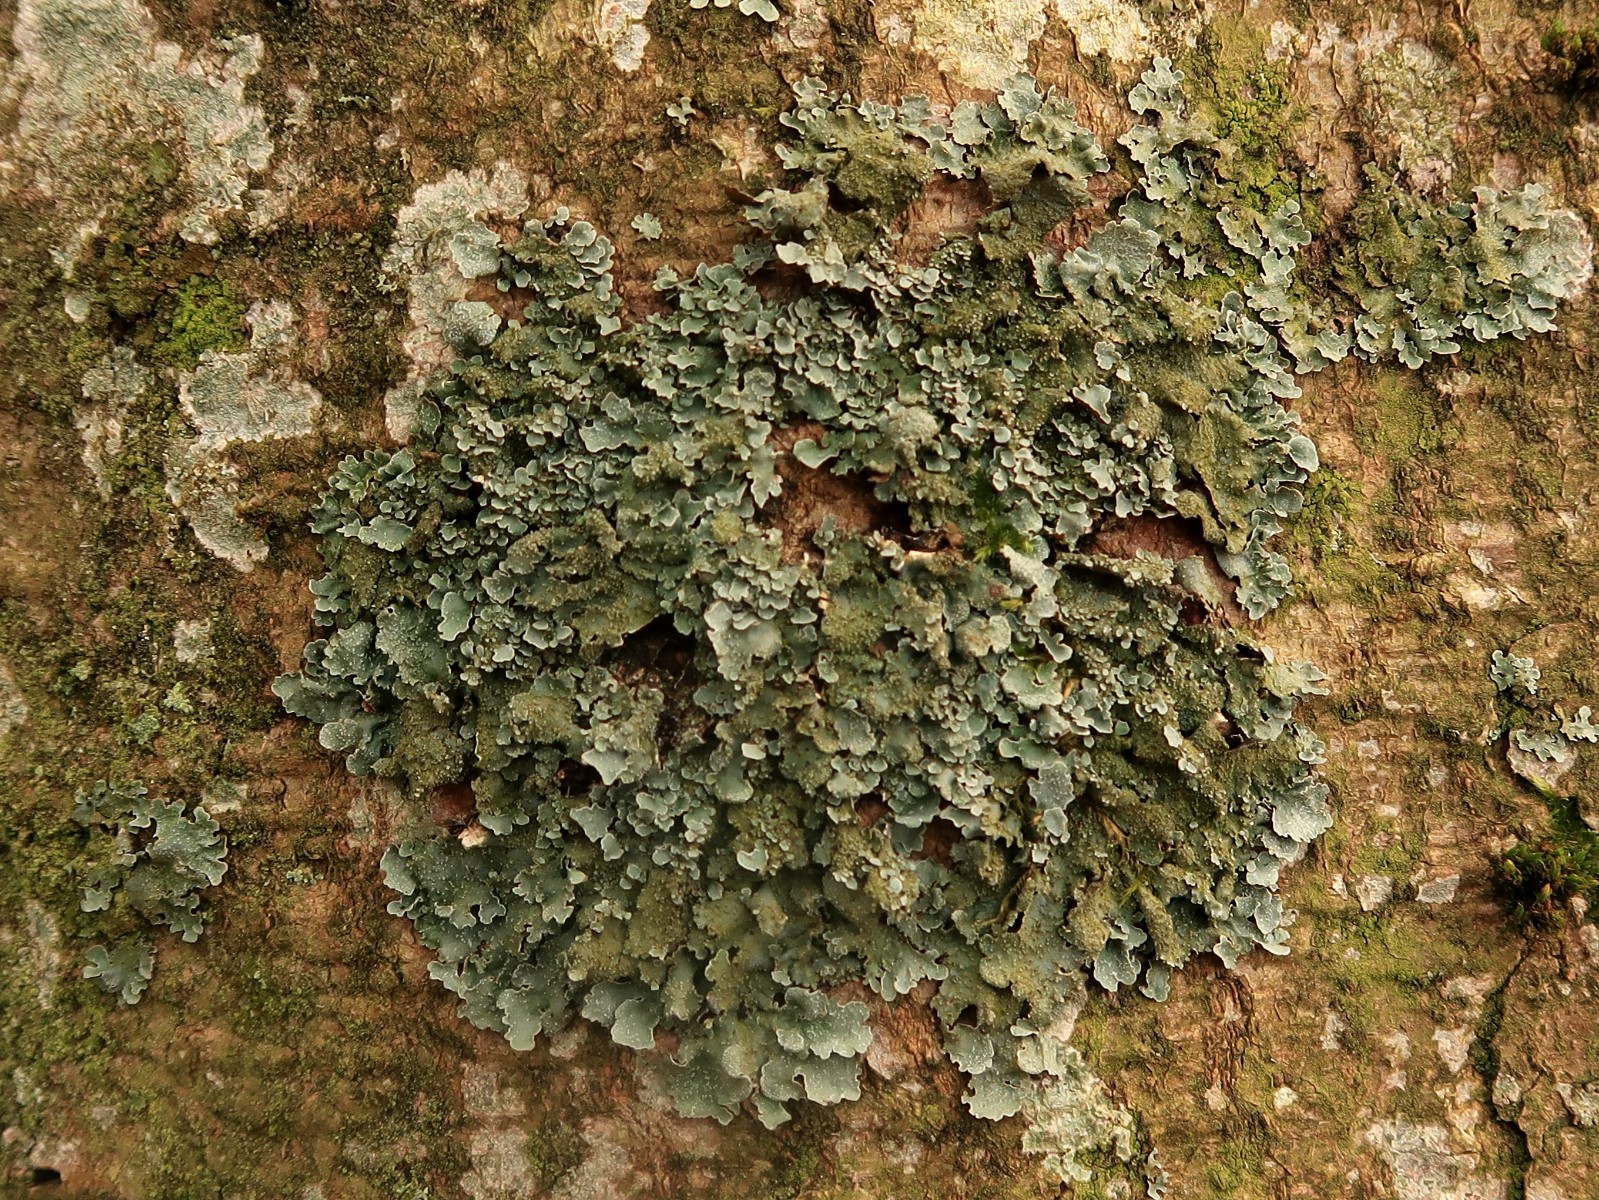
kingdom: Fungi
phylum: Ascomycota
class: Lecanoromycetes
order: Lecanorales
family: Parmeliaceae
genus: Parmelia
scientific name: Parmelia ernstiae
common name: rimstift-skållav
